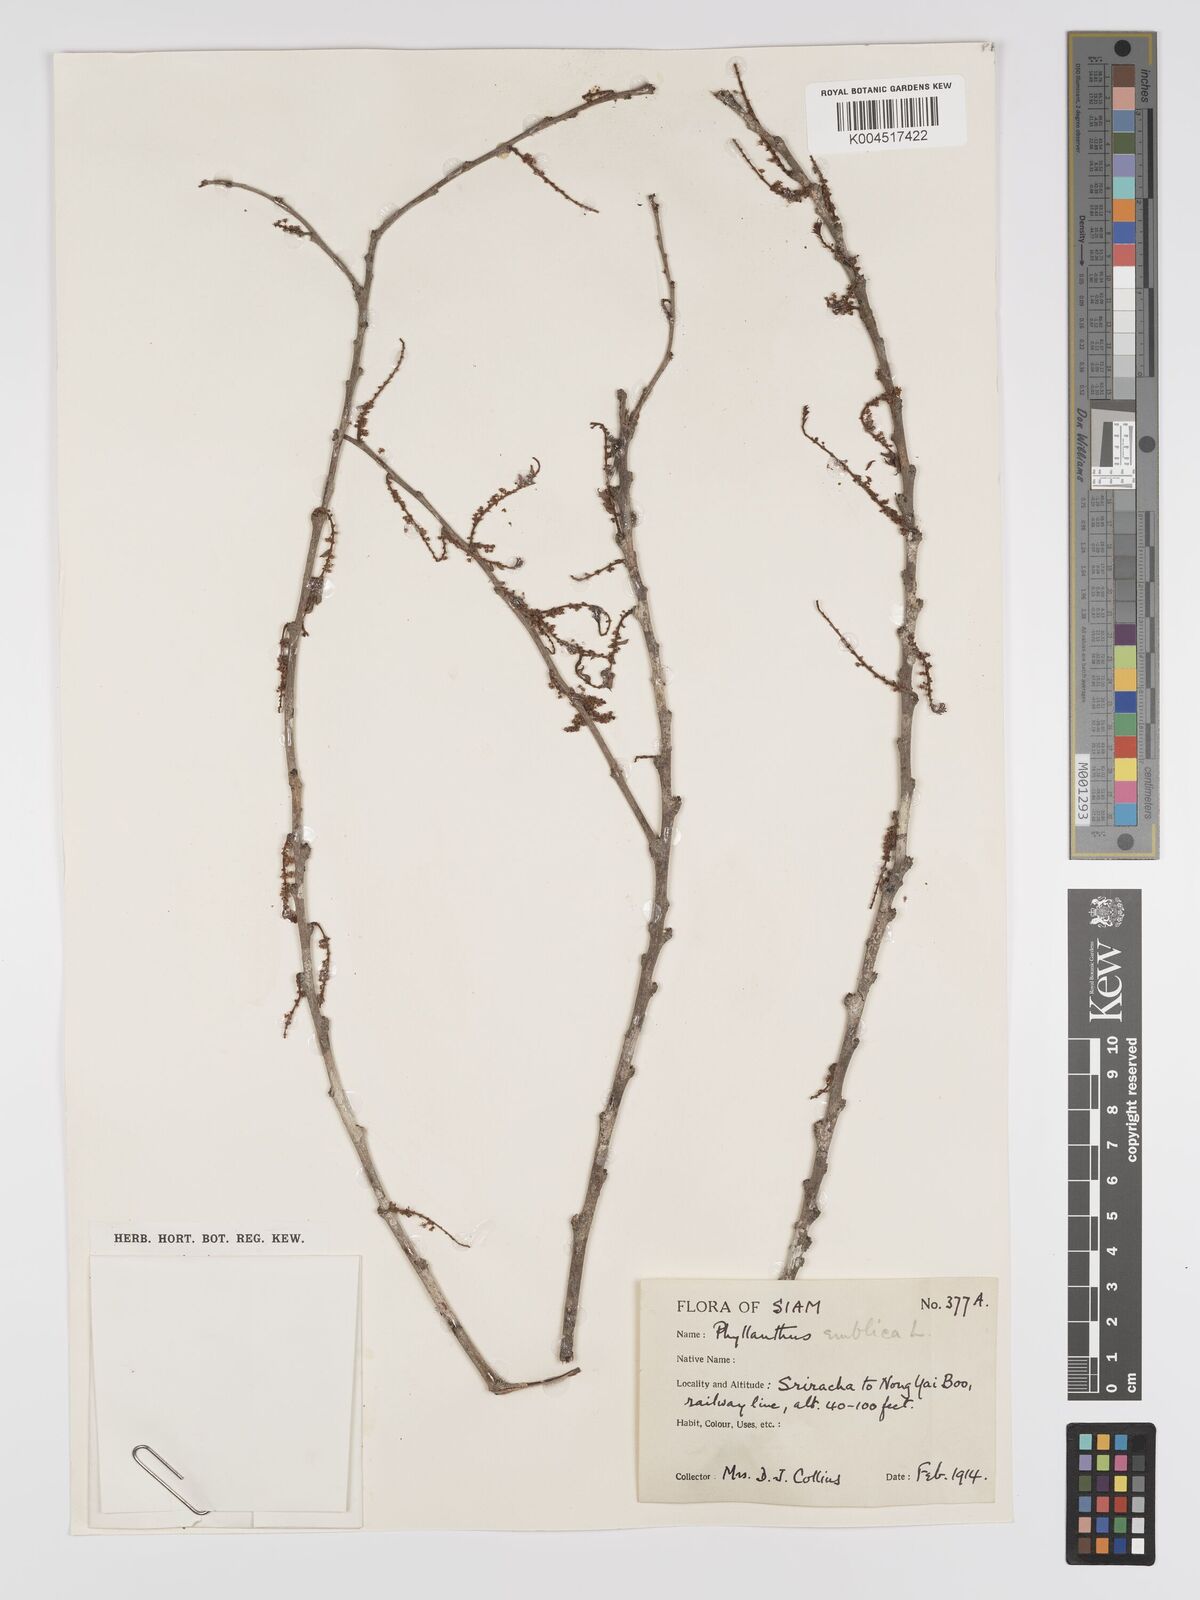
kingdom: Plantae
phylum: Tracheophyta
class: Magnoliopsida
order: Malpighiales
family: Phyllanthaceae
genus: Phyllanthus
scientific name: Phyllanthus emblica
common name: Indian gooseberry
